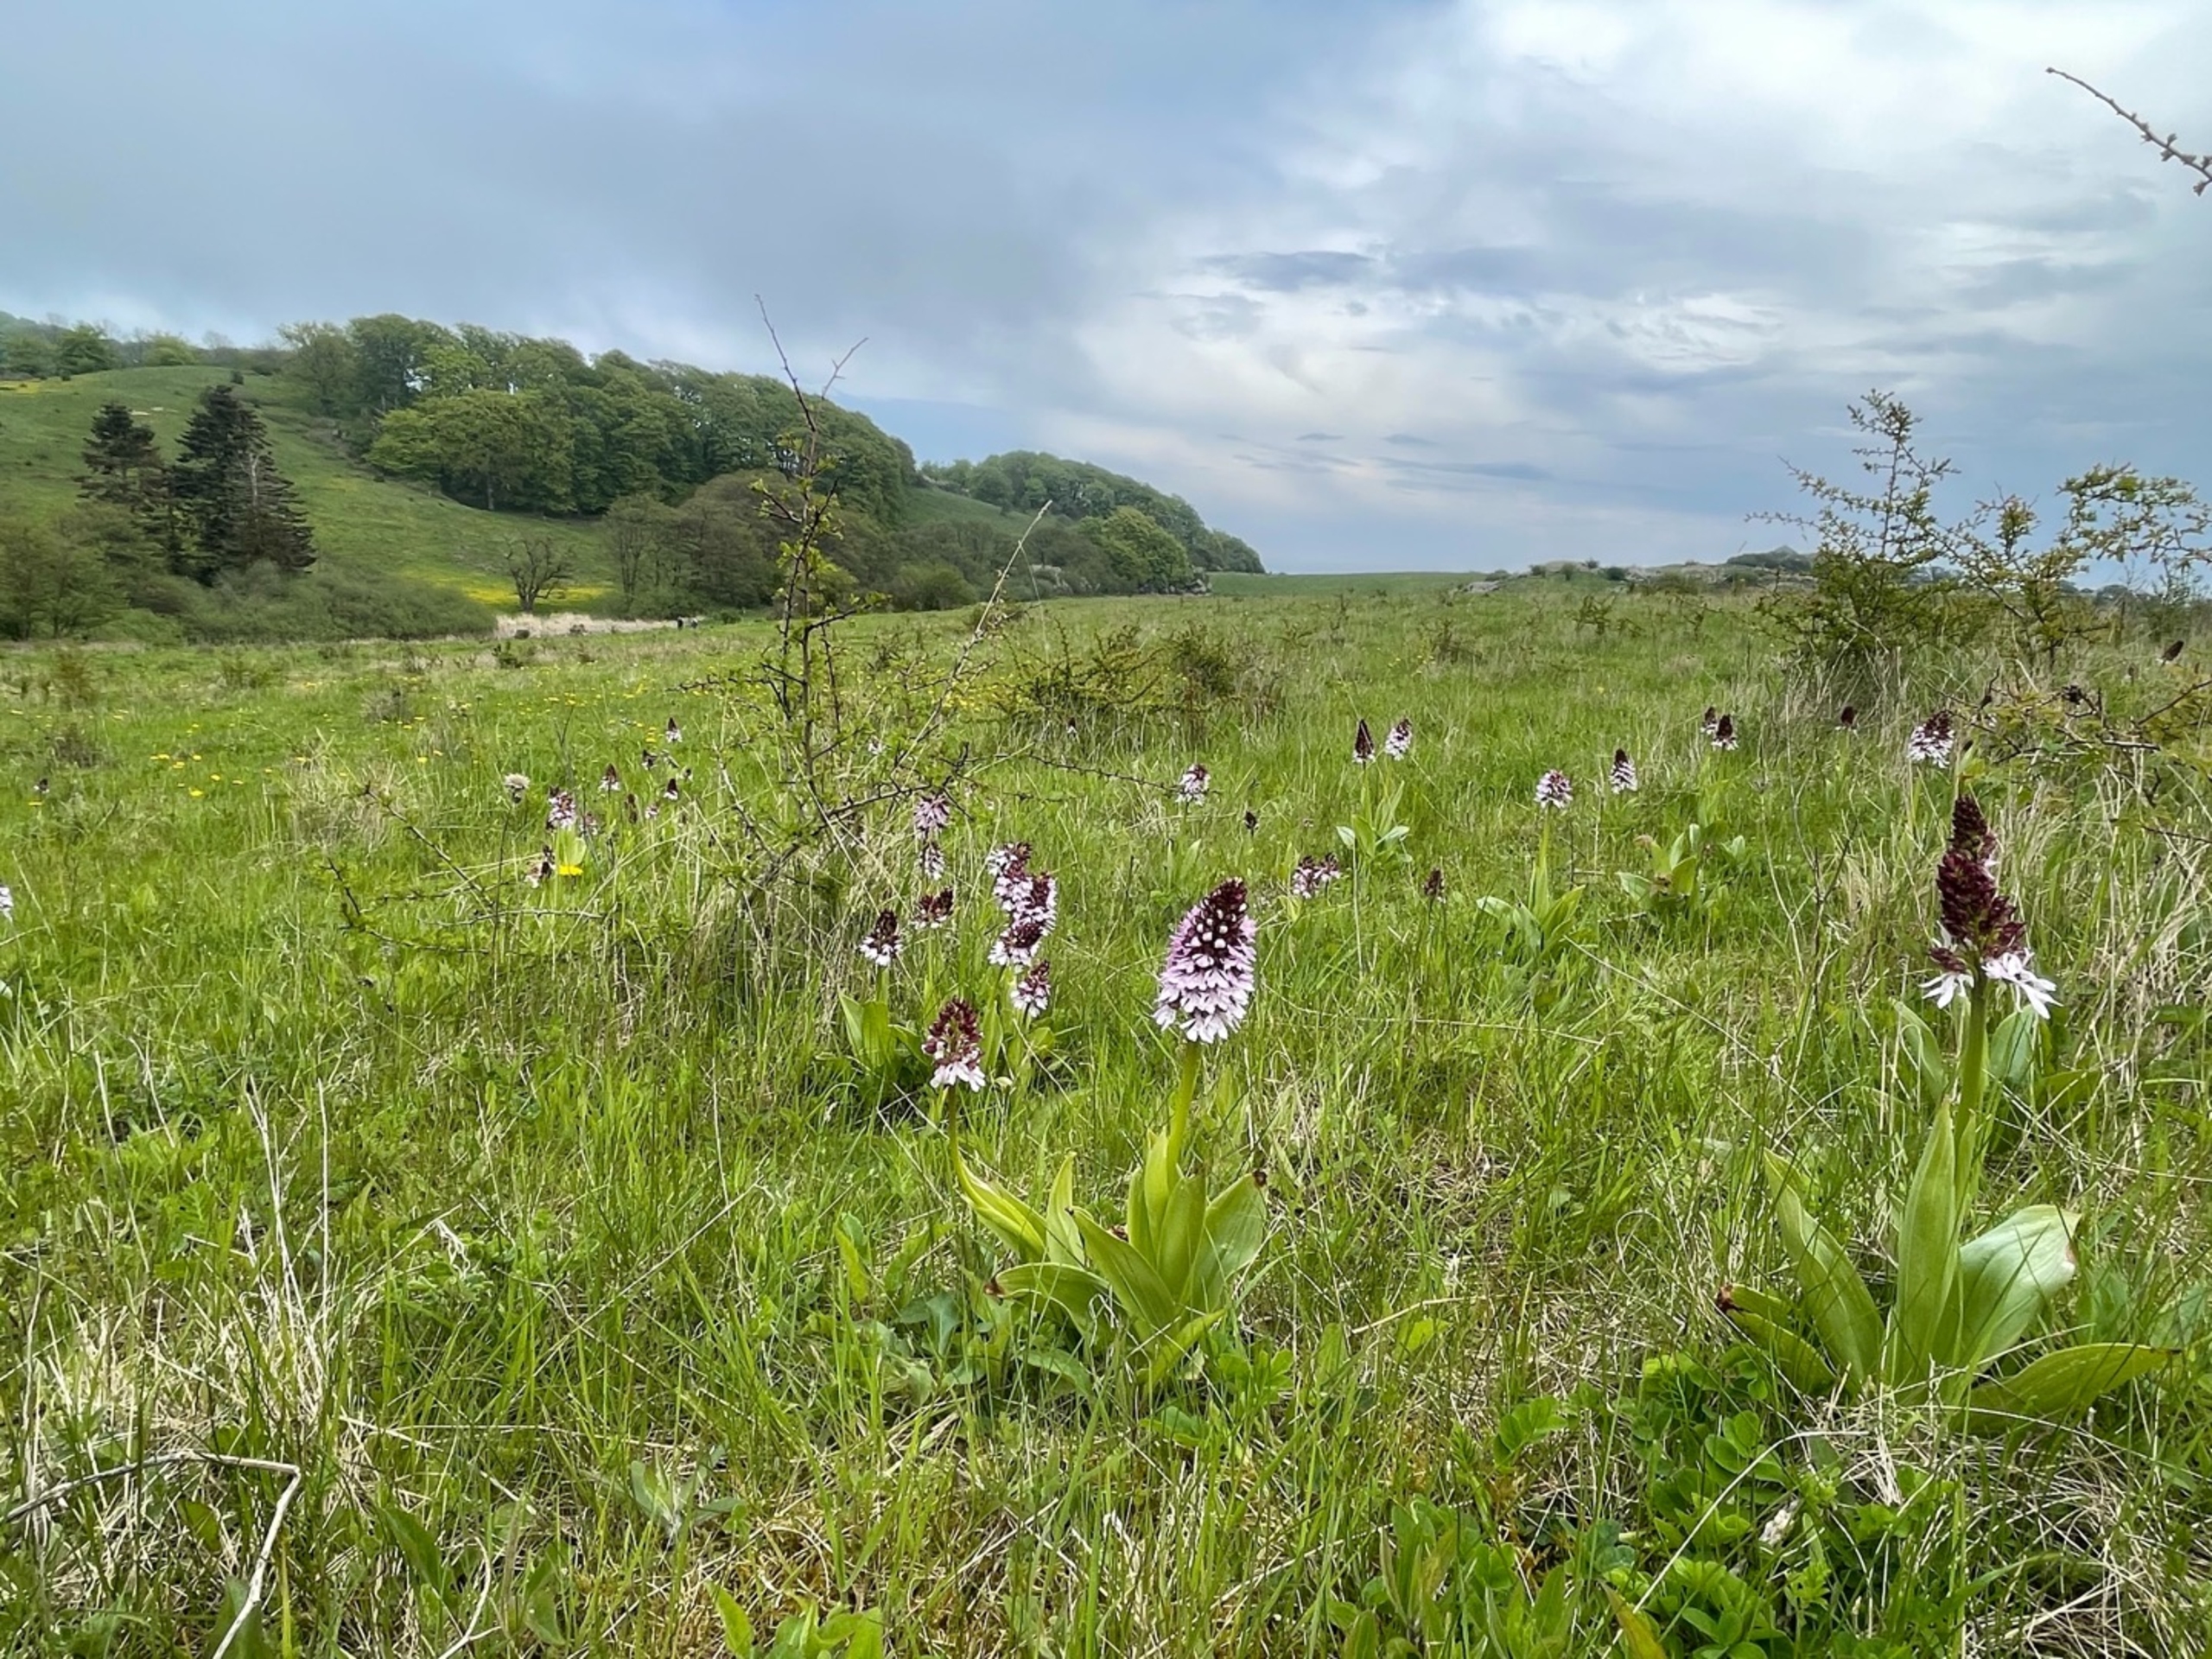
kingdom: Plantae
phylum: Tracheophyta
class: Liliopsida
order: Asparagales
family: Orchidaceae
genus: Orchis
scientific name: Orchis purpurea
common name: Stor gøgeurt
